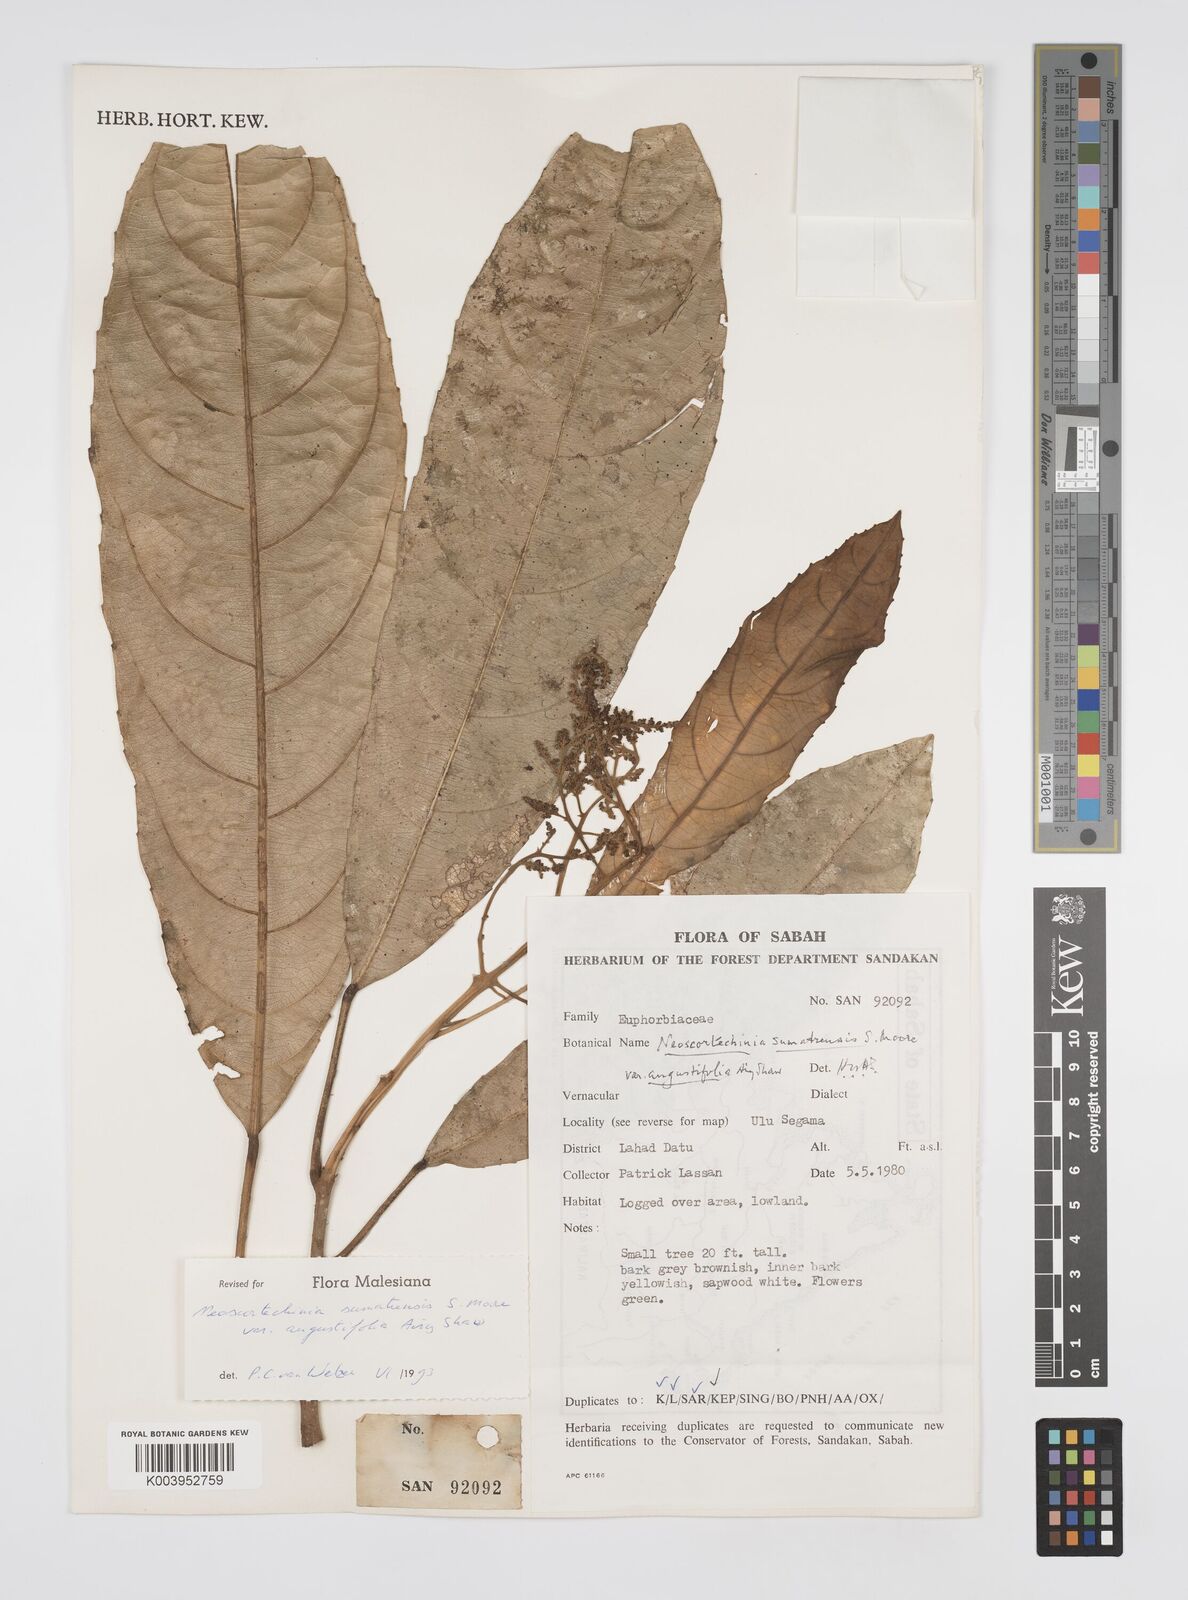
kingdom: Plantae
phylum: Tracheophyta
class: Magnoliopsida
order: Malpighiales
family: Euphorbiaceae
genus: Neoscortechinia
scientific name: Neoscortechinia angustifolia
